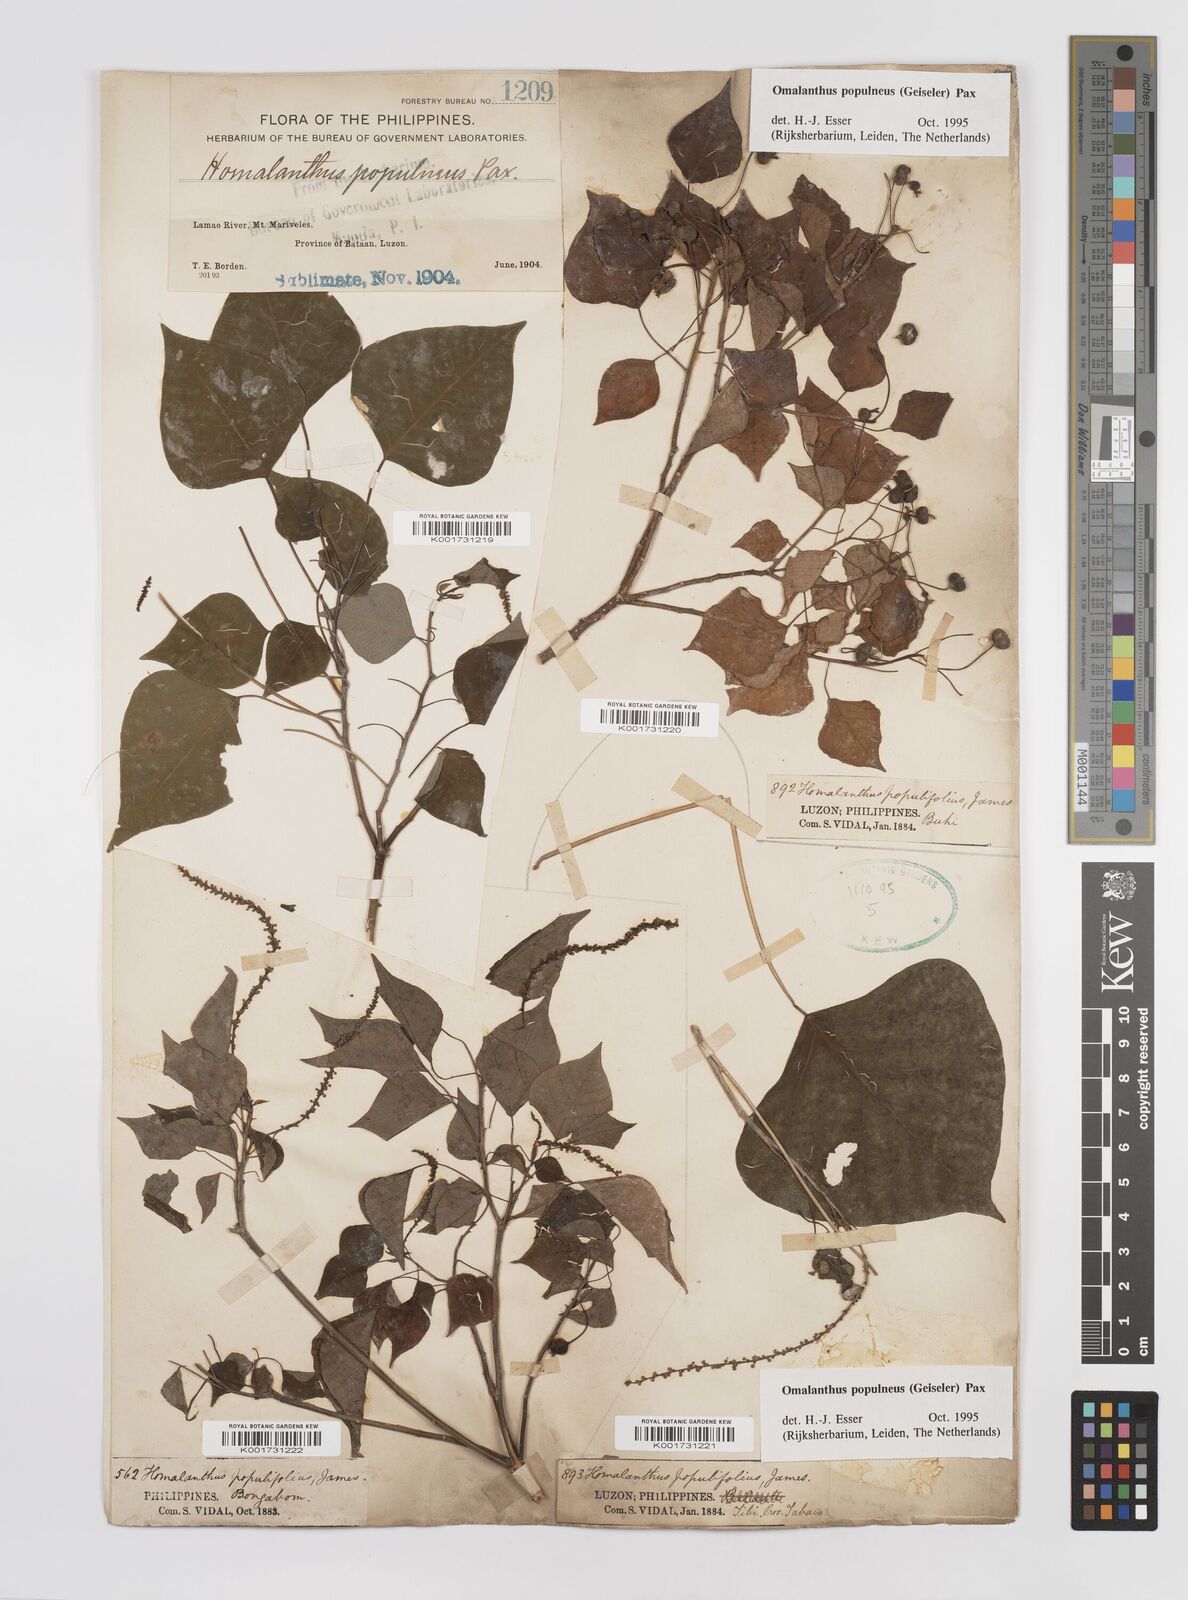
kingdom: Plantae
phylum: Tracheophyta
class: Magnoliopsida
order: Malpighiales
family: Euphorbiaceae
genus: Homalanthus
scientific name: Homalanthus populneus
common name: Spurge
